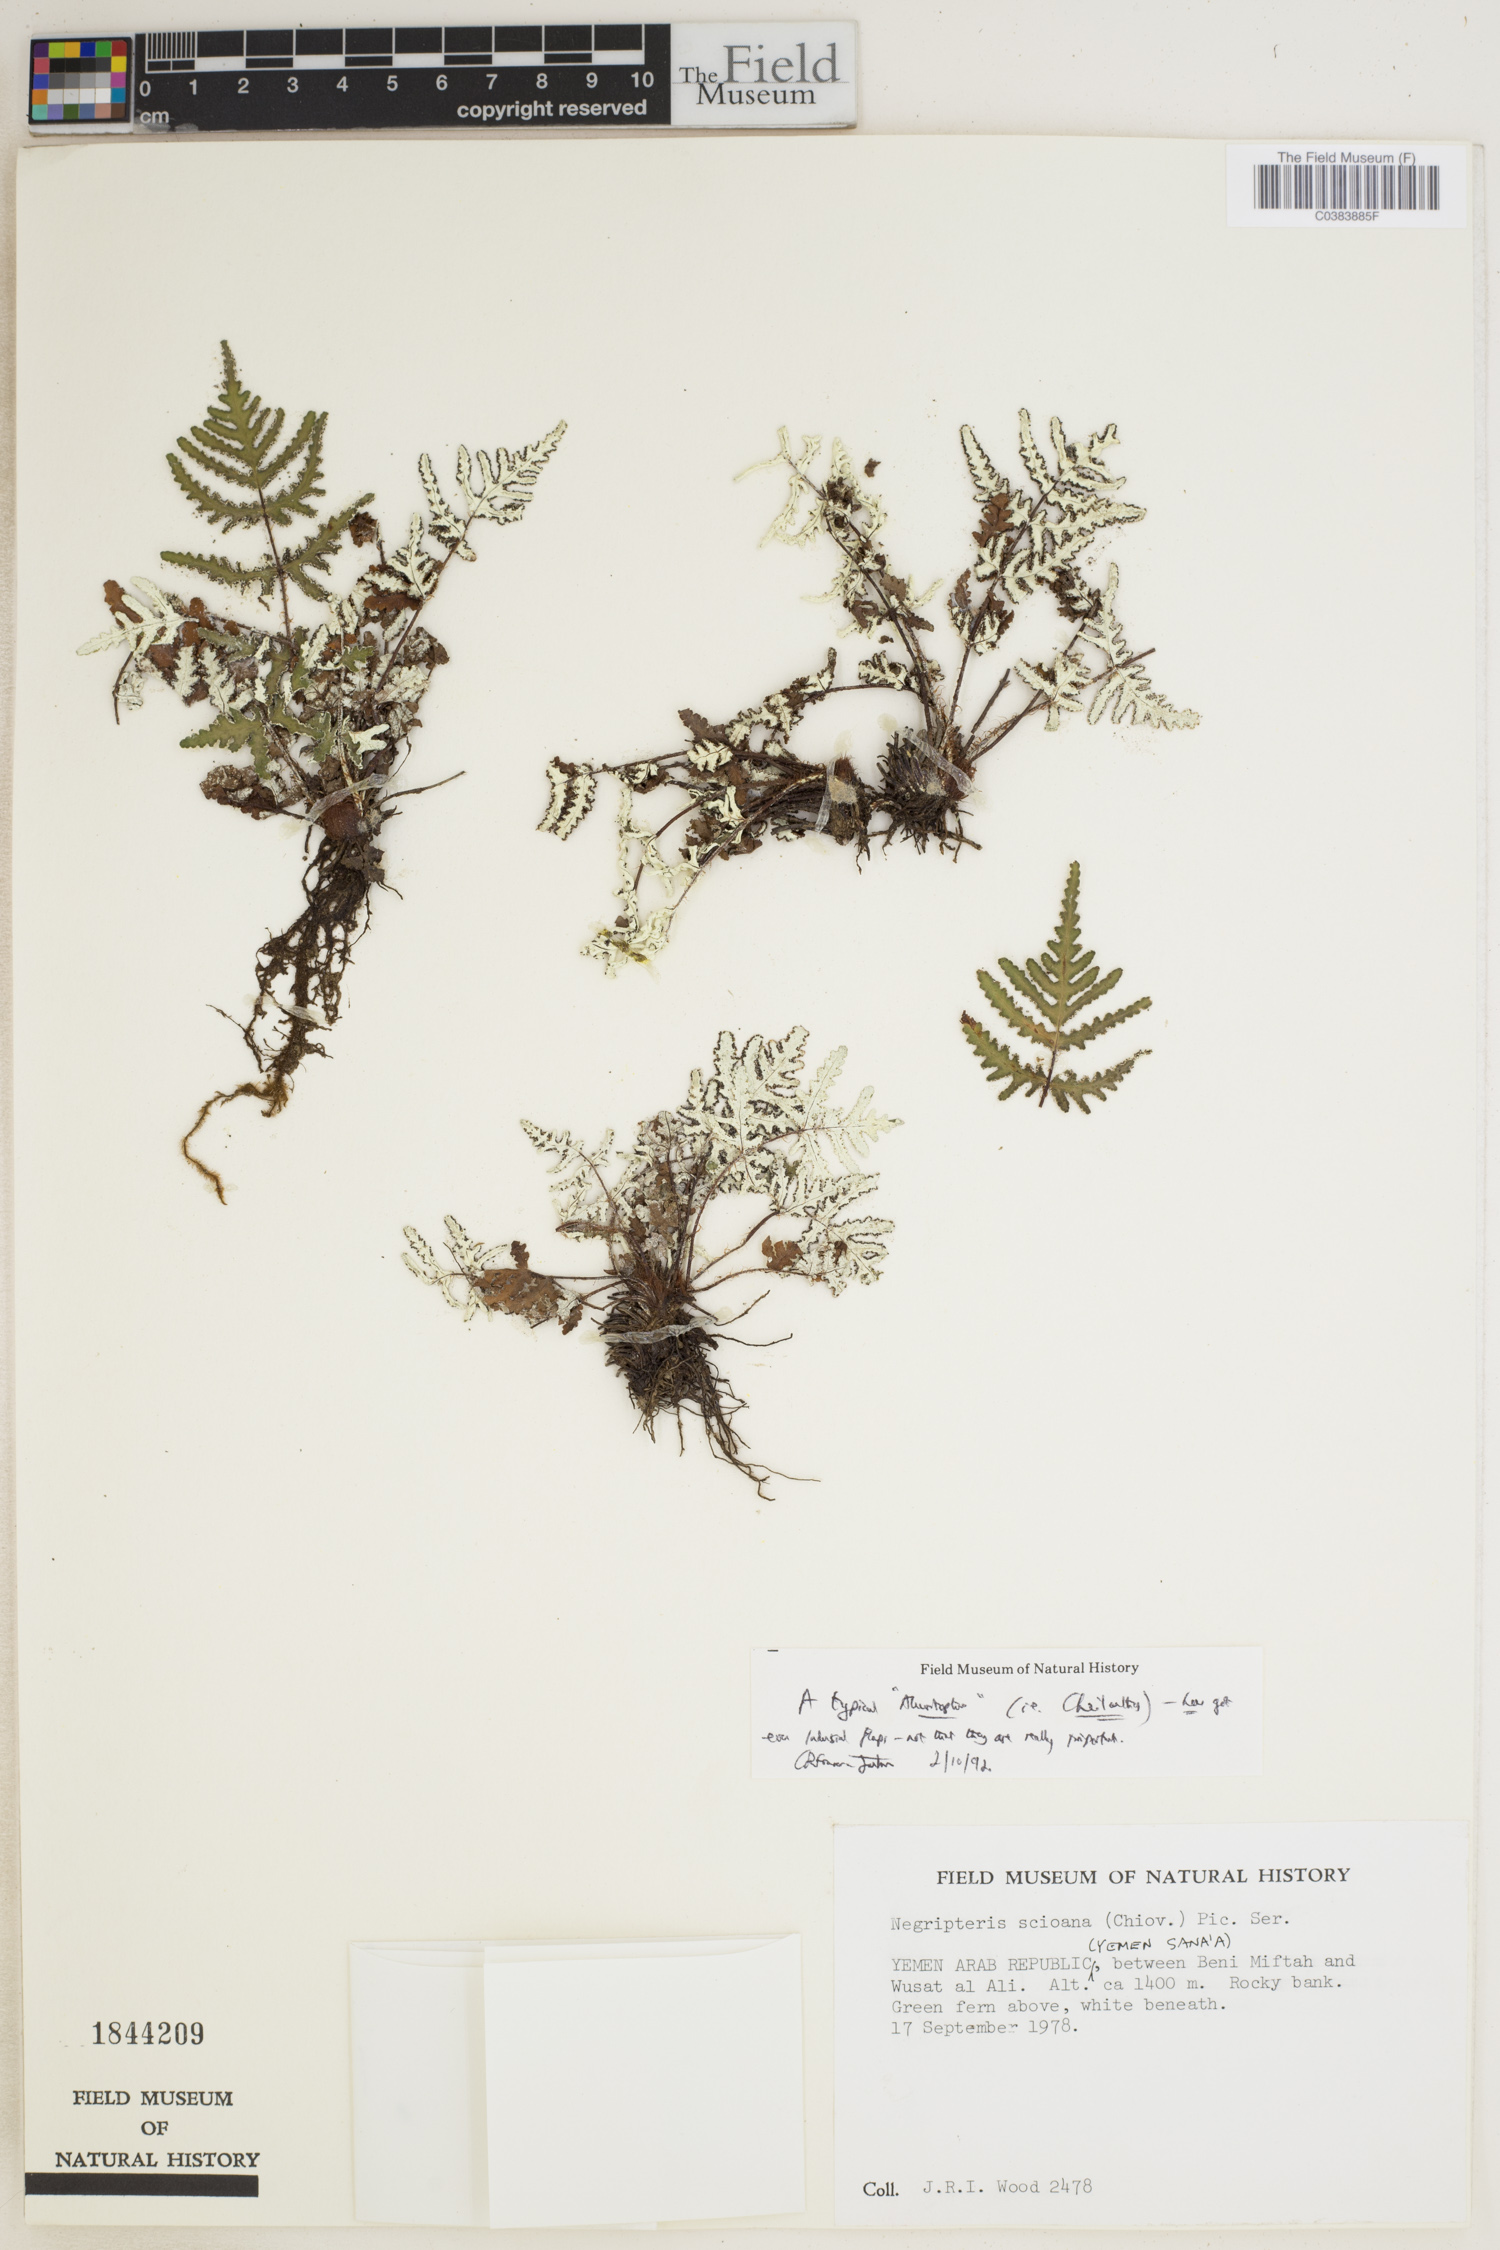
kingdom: Plantae
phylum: Tracheophyta
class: Polypodiopsida
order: Polypodiales
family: Pteridaceae
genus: Aleuritopteris
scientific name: Aleuritopteris scioana
